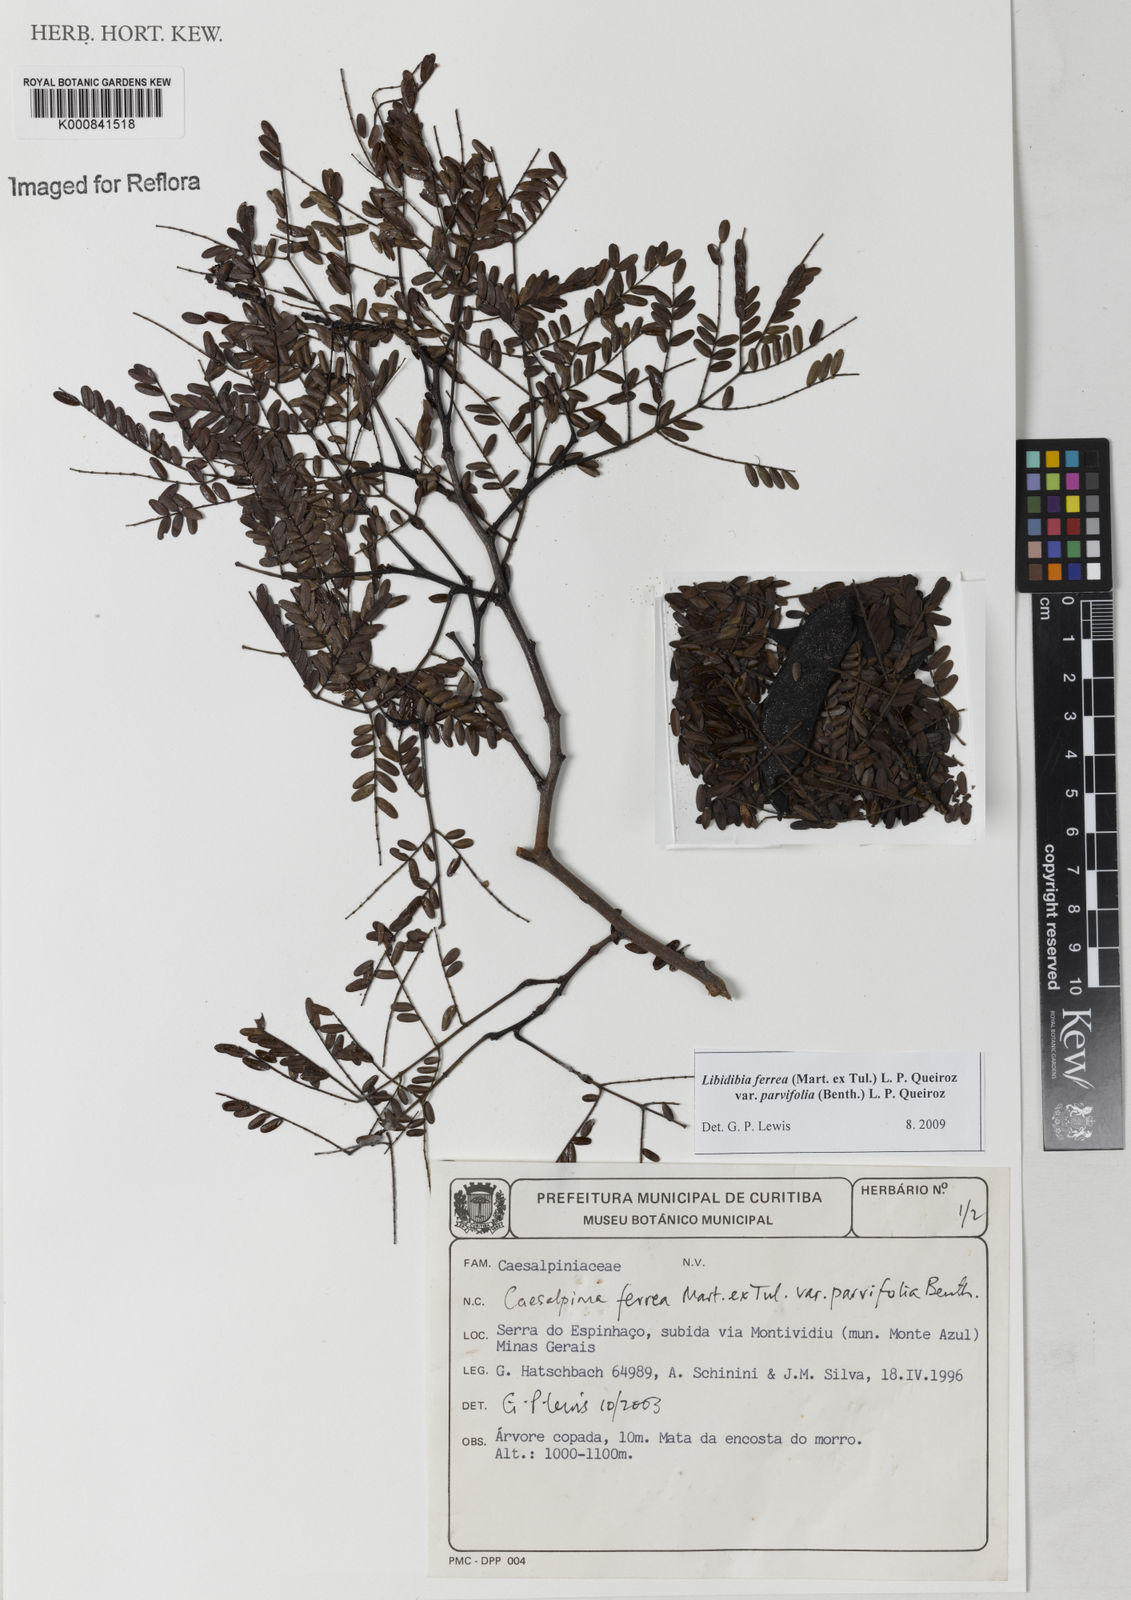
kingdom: Plantae
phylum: Tracheophyta
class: Magnoliopsida
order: Fabales
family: Fabaceae
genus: Libidibia
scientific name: Libidibia ferrea
